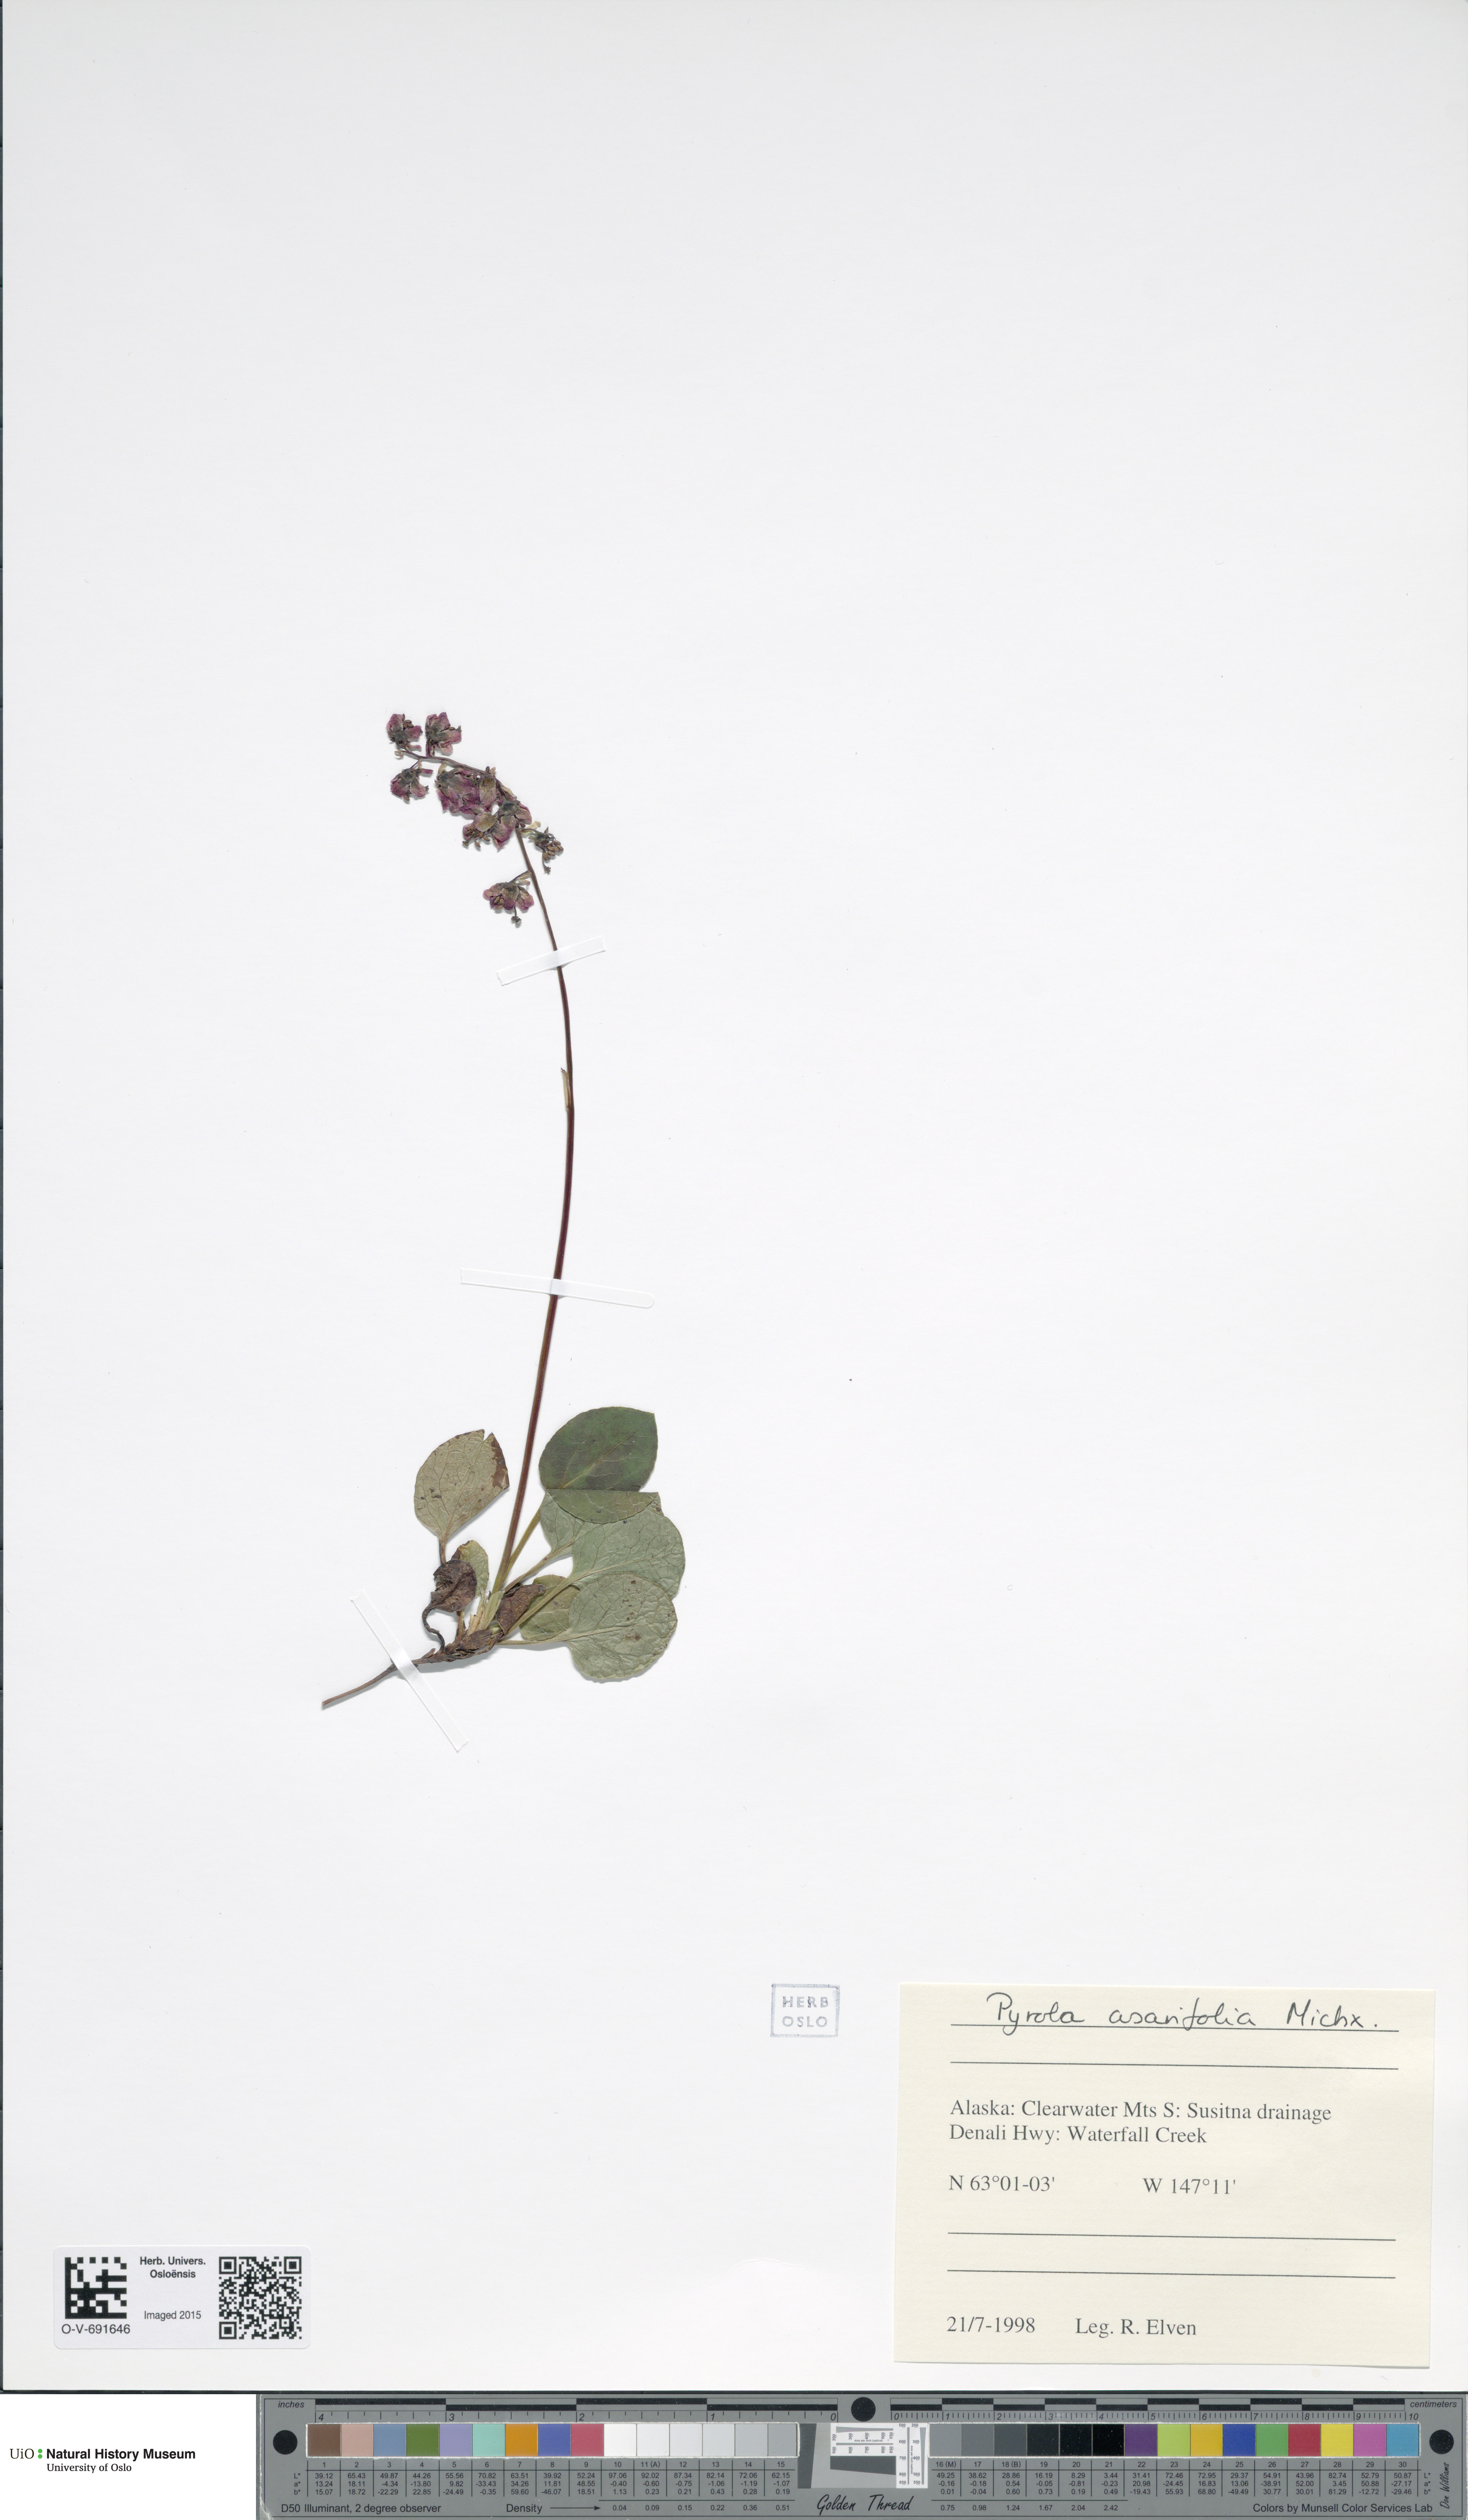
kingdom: Plantae
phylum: Tracheophyta
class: Magnoliopsida
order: Ericales
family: Ericaceae
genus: Pyrola
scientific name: Pyrola asarifolia
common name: Bog wintergreen
